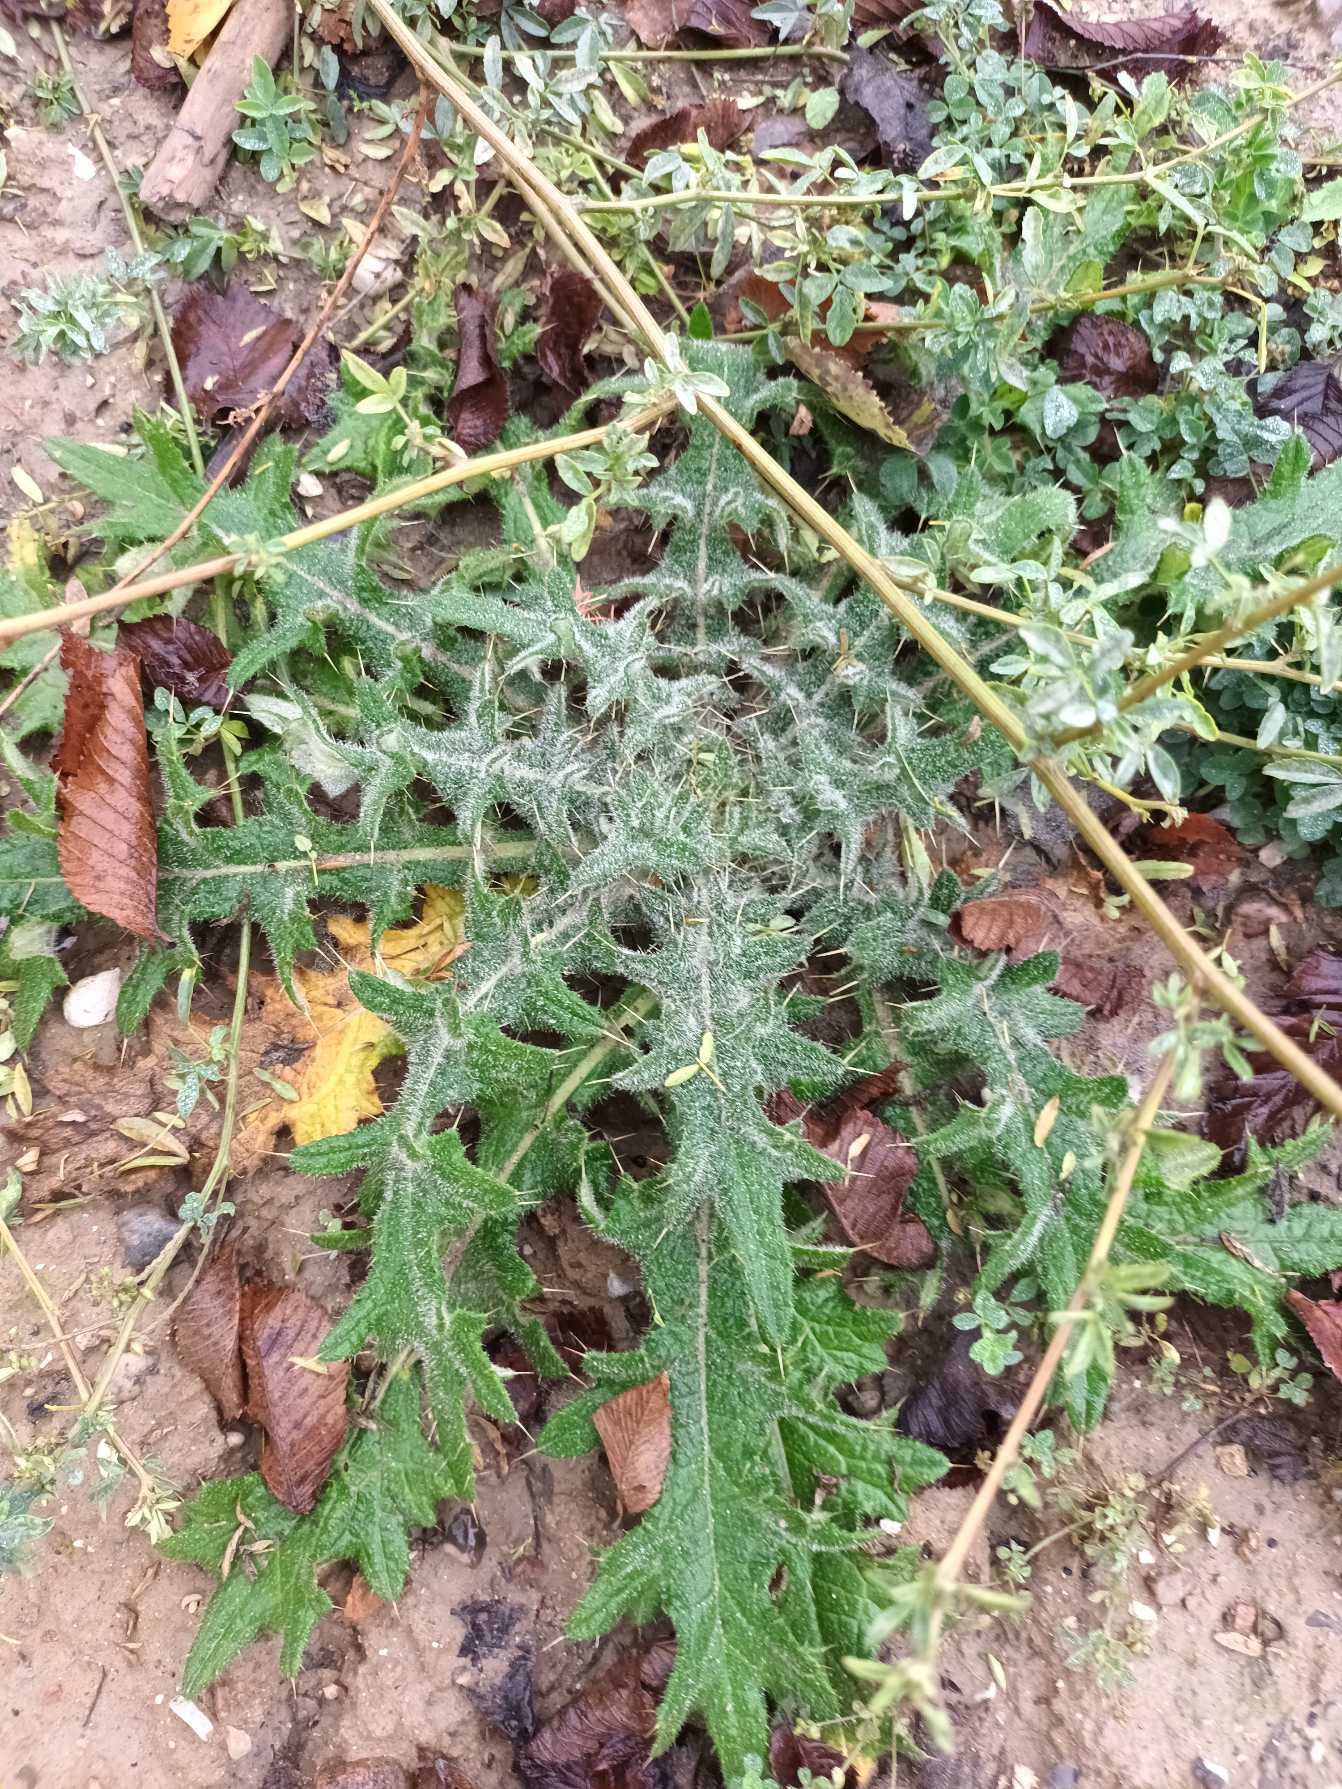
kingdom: Plantae
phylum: Tracheophyta
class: Magnoliopsida
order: Asterales
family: Asteraceae
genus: Cirsium
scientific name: Cirsium vulgare
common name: Horse-tidsel
